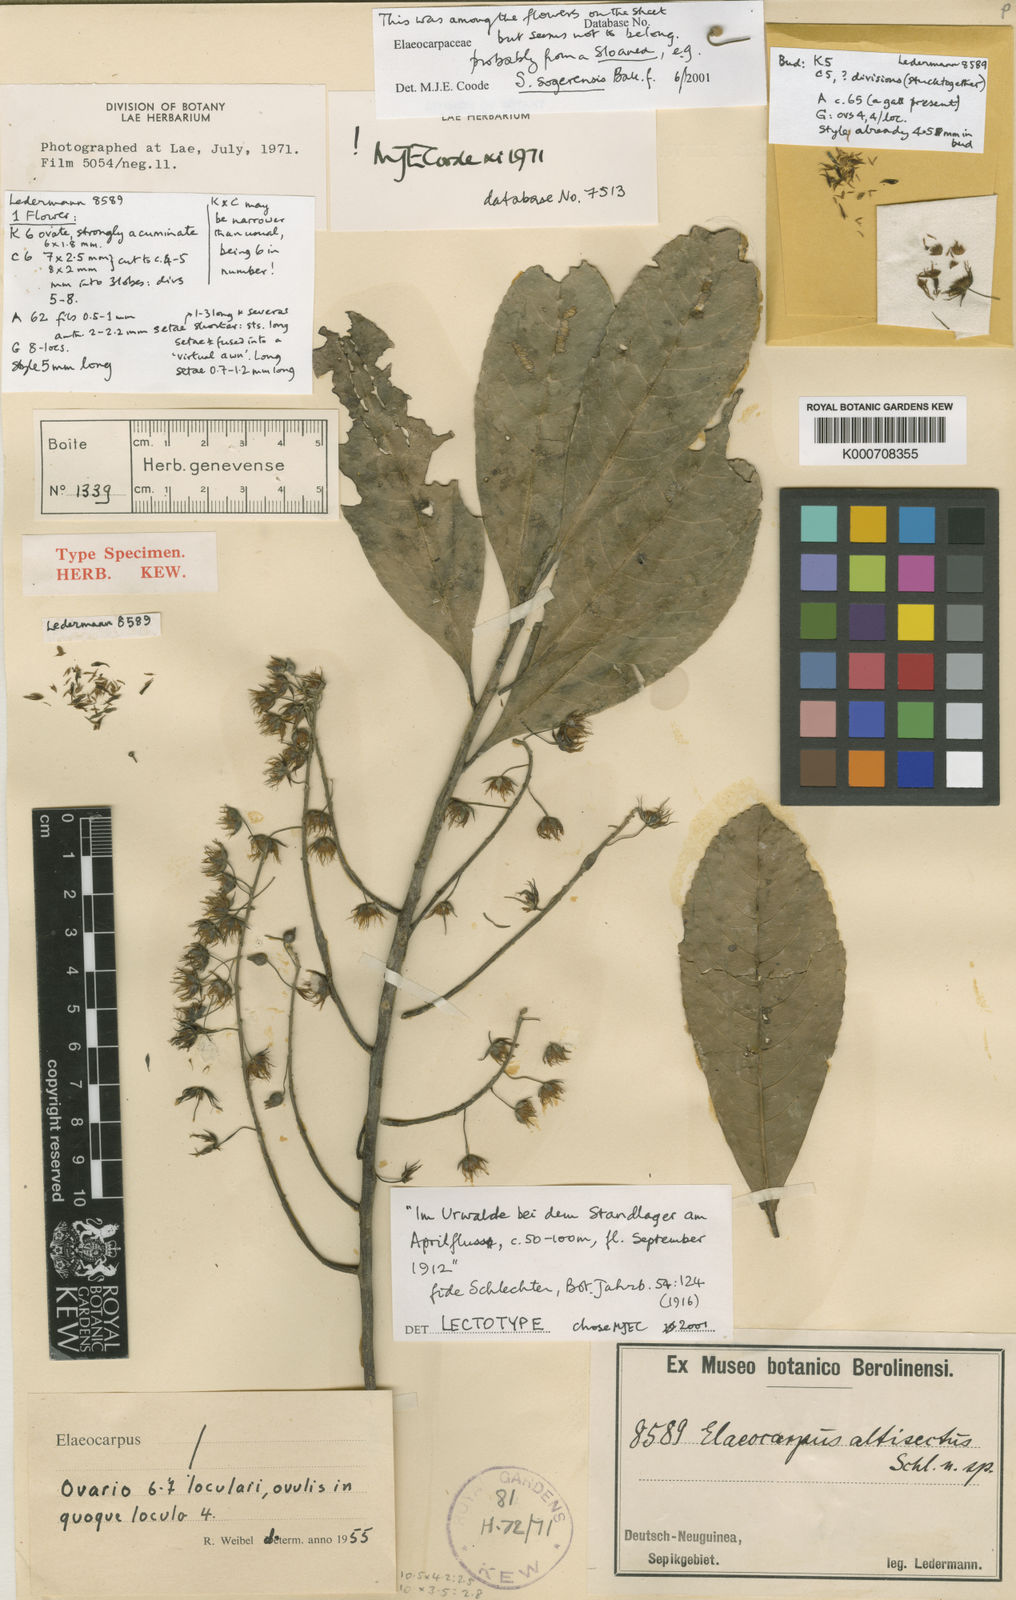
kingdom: Plantae
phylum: Tracheophyta
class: Magnoliopsida
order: Oxalidales
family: Elaeocarpaceae
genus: Elaeocarpus
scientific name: Elaeocarpus altisectus
